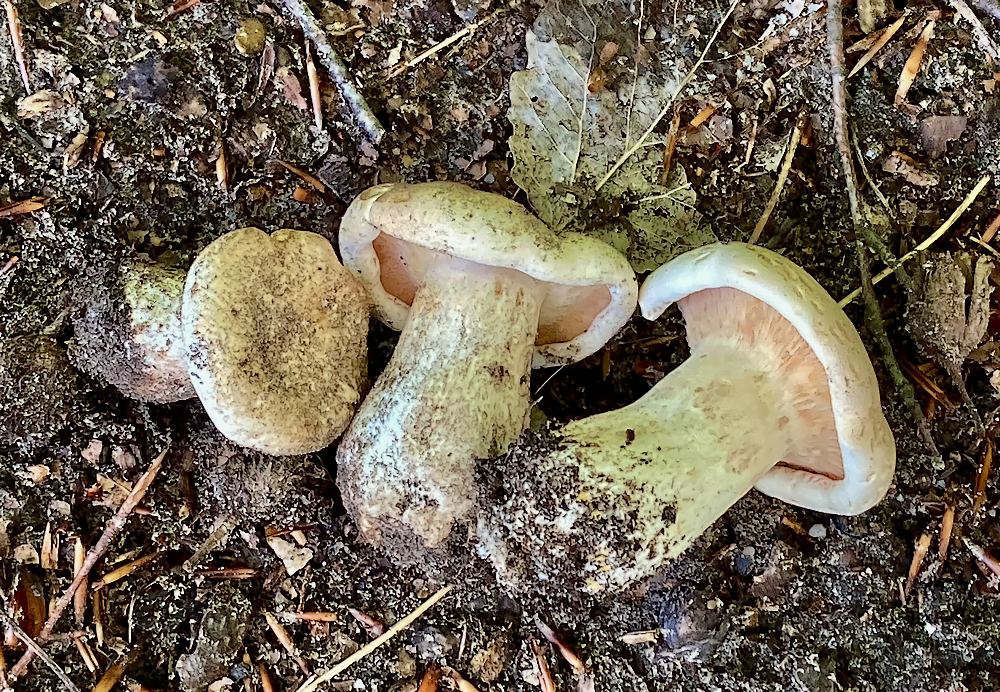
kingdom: Fungi
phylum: Basidiomycota
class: Agaricomycetes
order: Russulales
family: Russulaceae
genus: Lactifluus
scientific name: Lactifluus
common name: mælkehat
